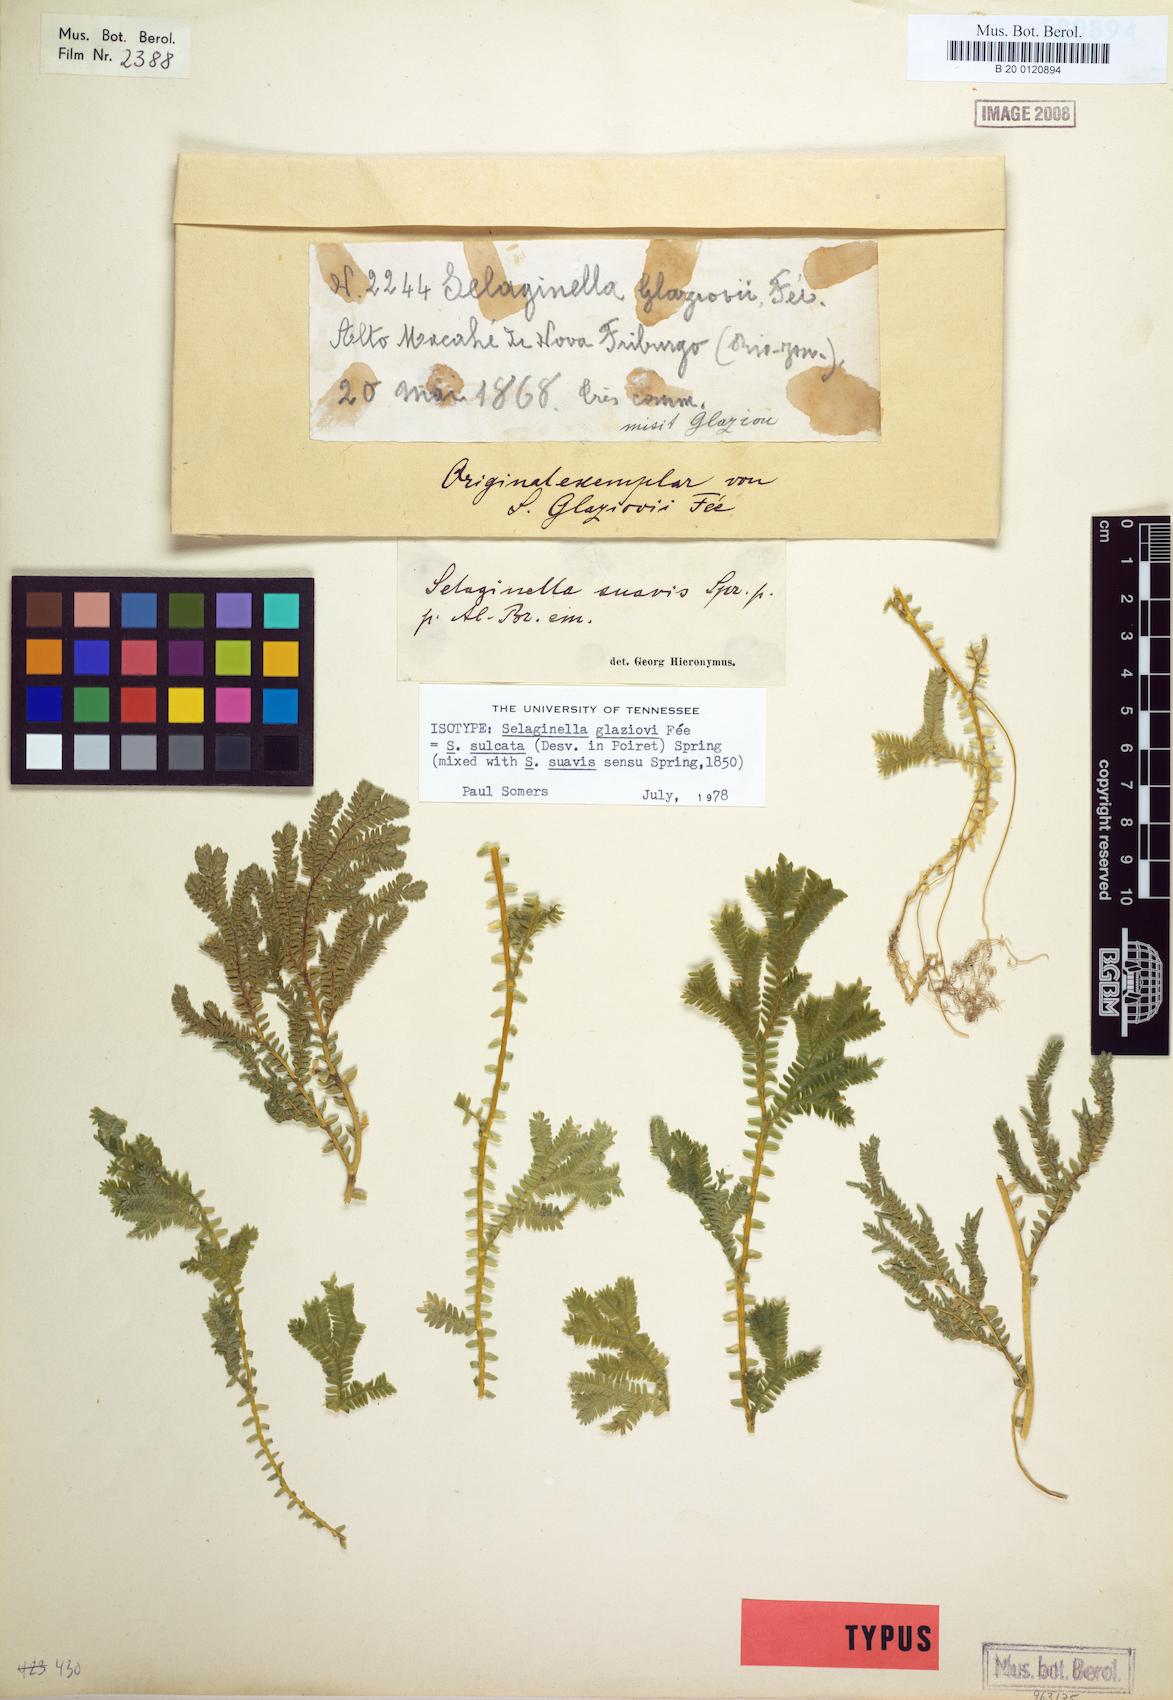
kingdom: Plantae
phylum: Tracheophyta
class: Lycopodiopsida
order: Selaginellales
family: Selaginellaceae
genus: Selaginella
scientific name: Selaginella suavis
